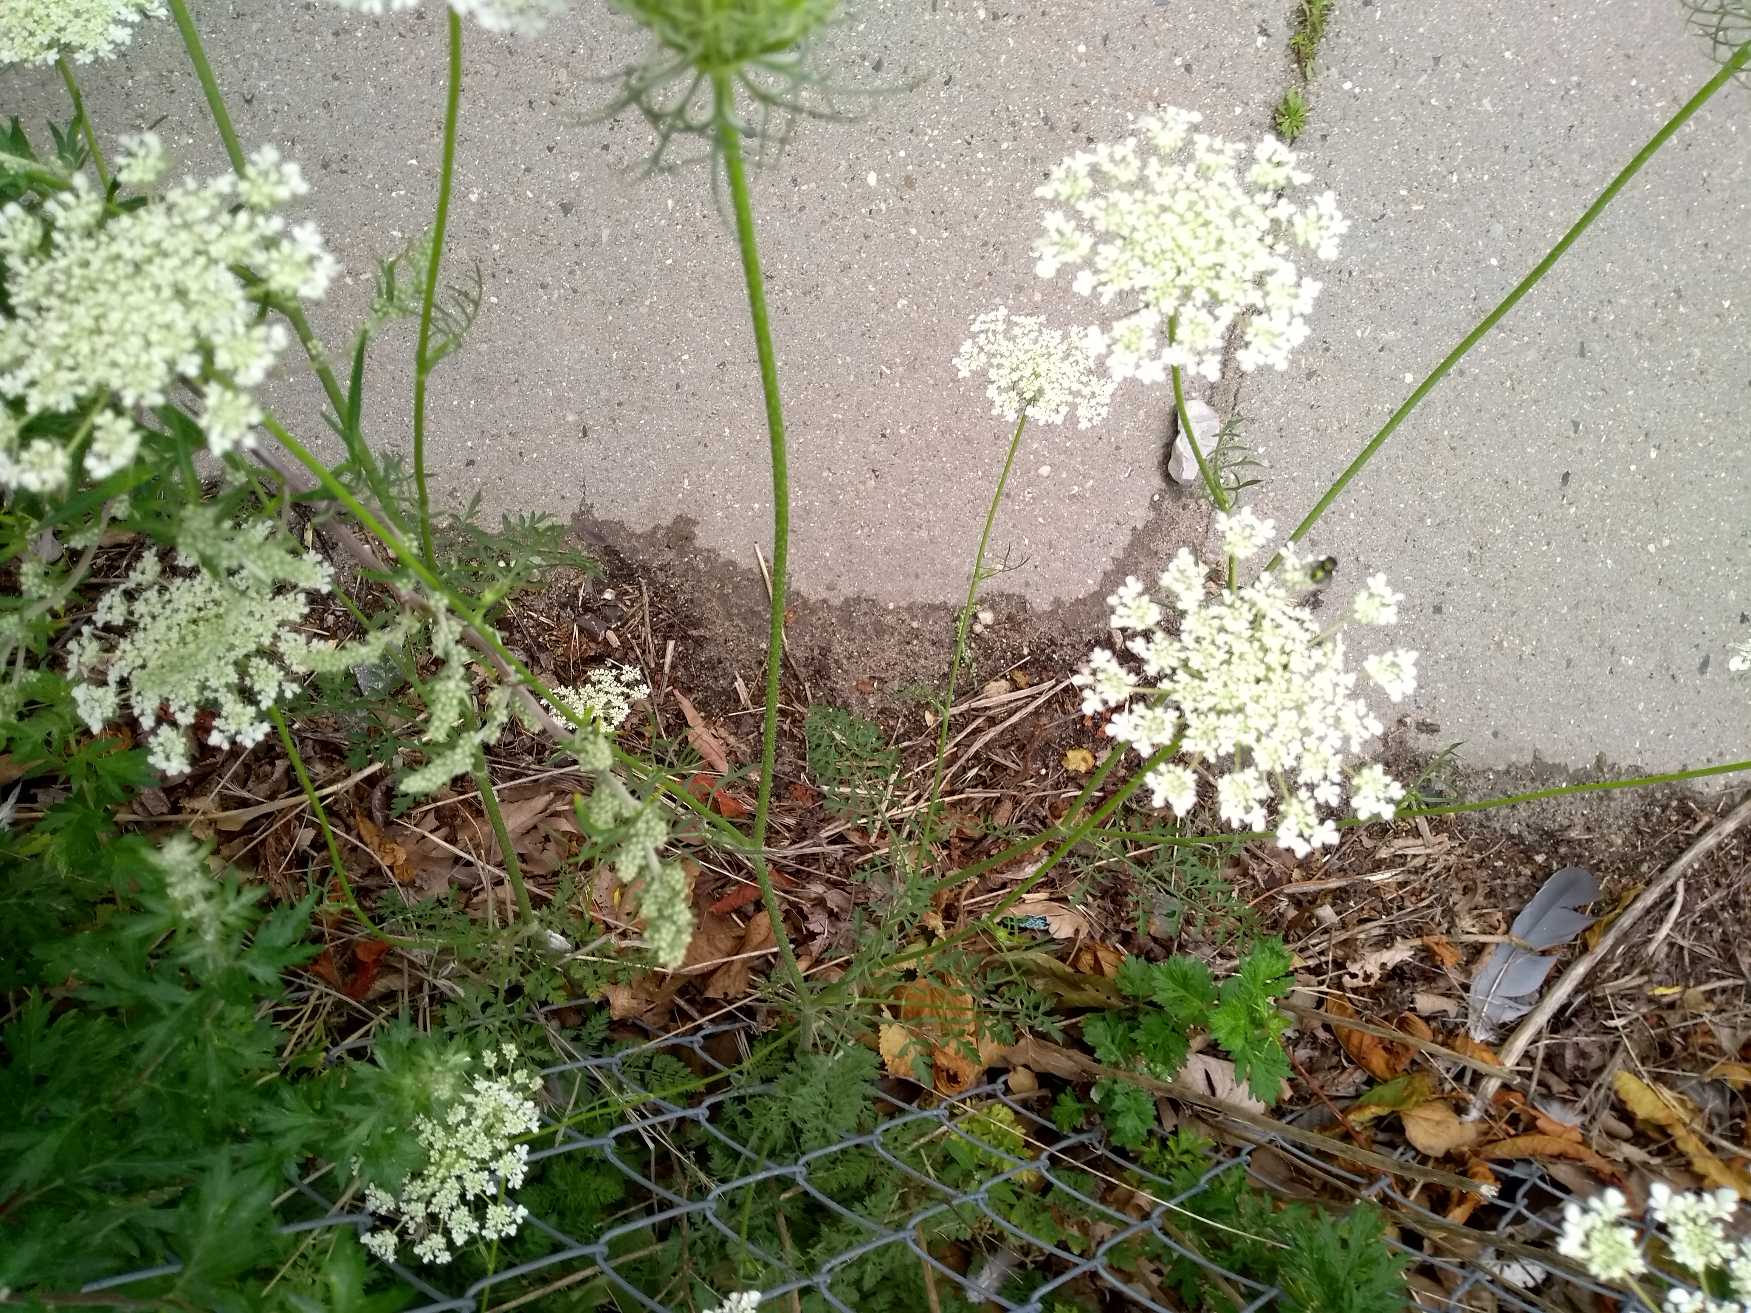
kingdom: Plantae
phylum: Tracheophyta
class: Magnoliopsida
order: Apiales
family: Apiaceae
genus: Daucus
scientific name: Daucus carota
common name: Gulerod
